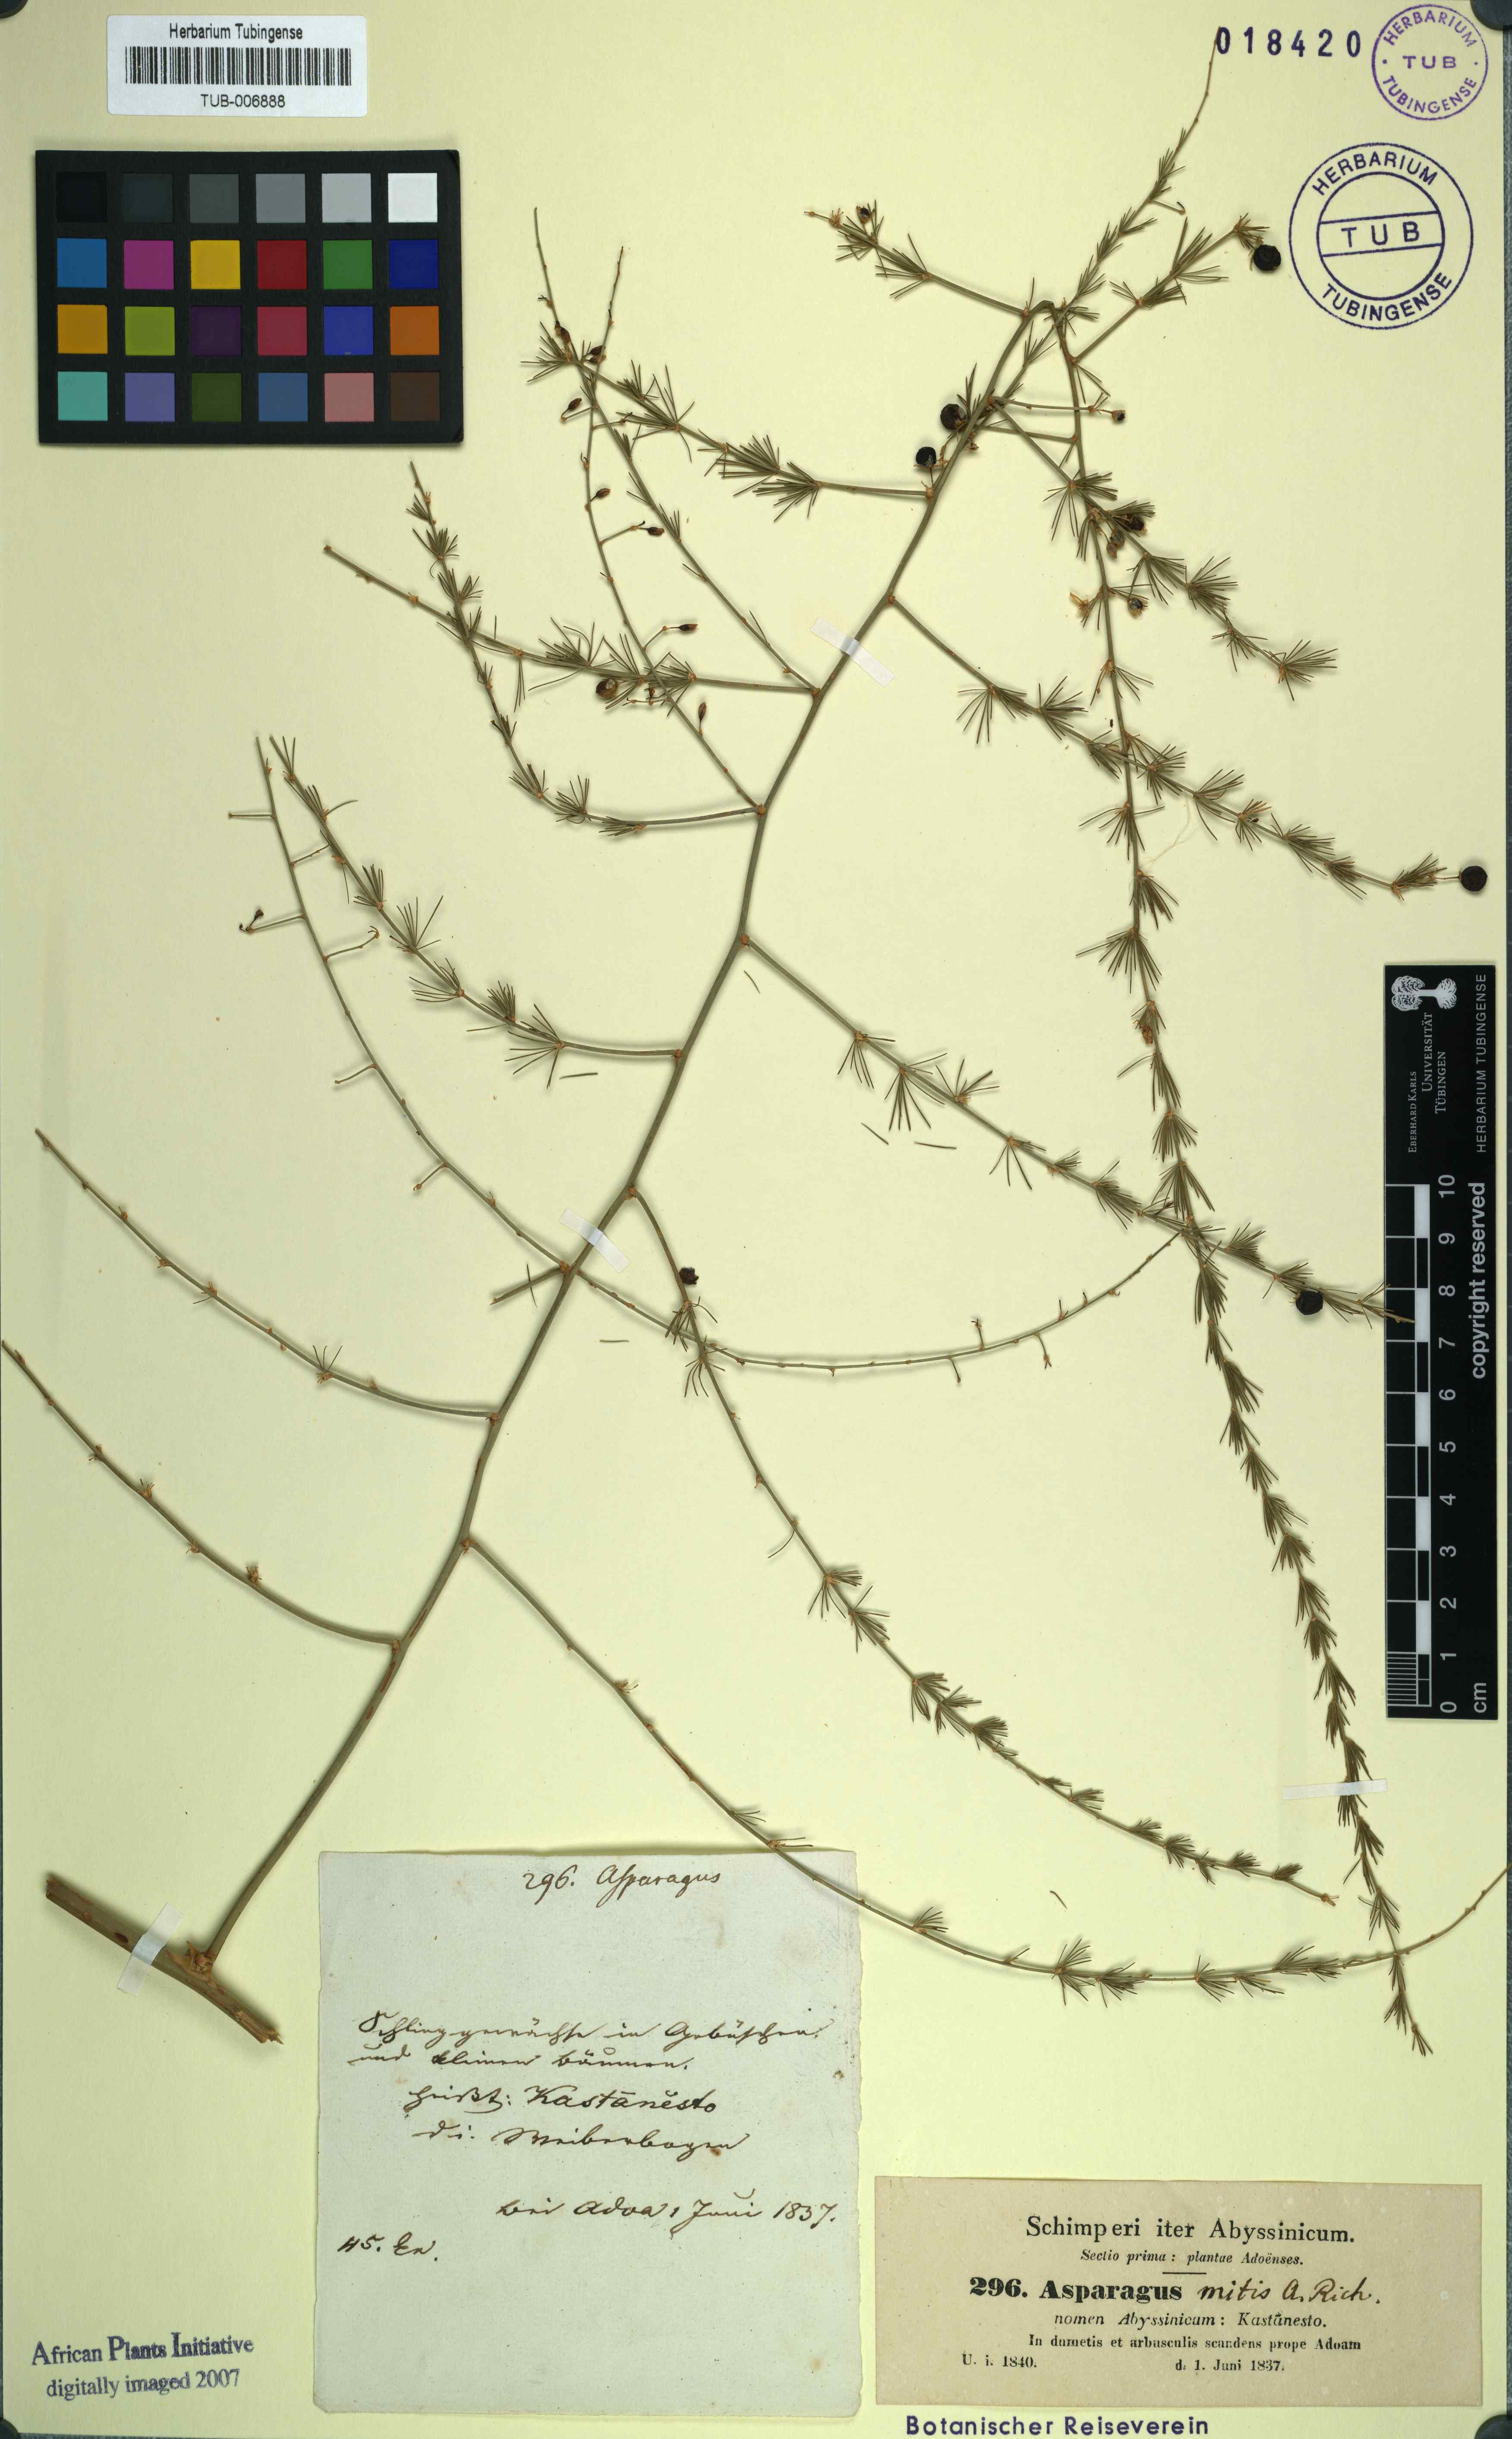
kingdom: Plantae
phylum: Tracheophyta
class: Liliopsida
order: Asparagales
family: Asparagaceae
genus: Asparagus
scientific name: Asparagus africanus
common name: Asparagus-fern
